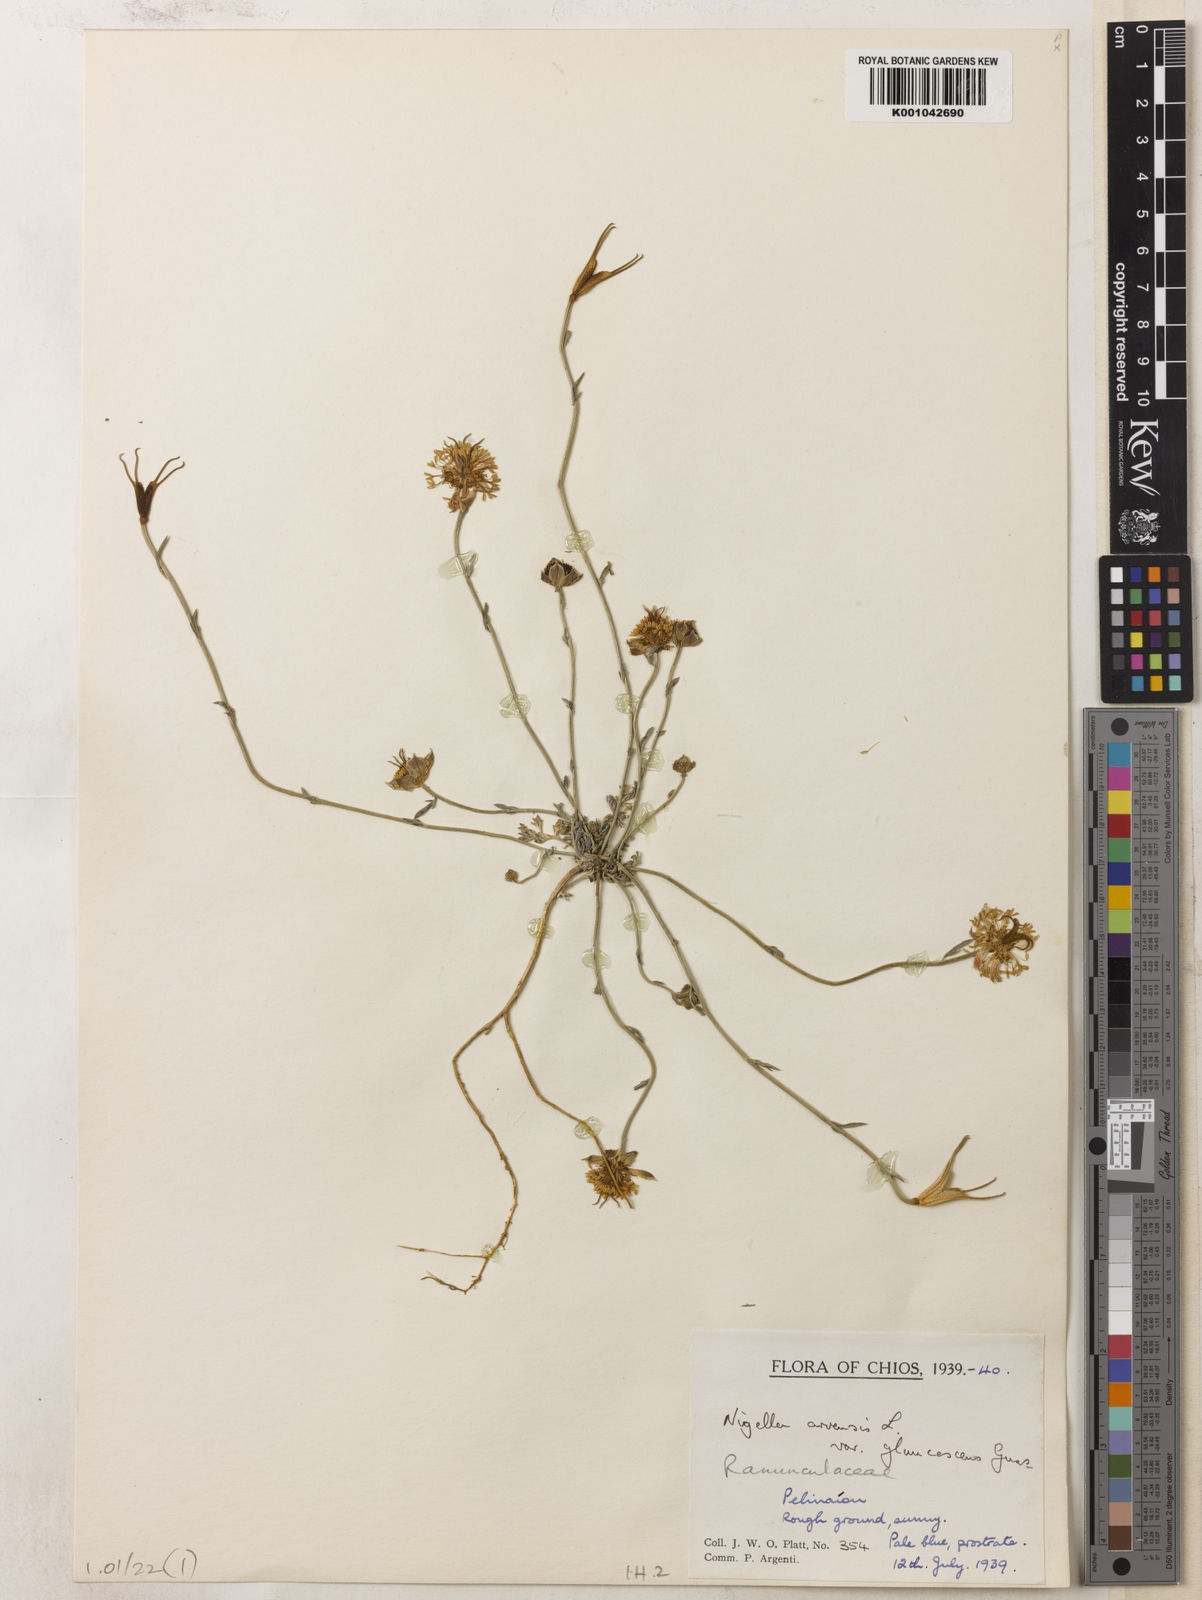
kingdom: Plantae
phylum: Tracheophyta
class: Magnoliopsida
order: Ranunculales
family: Ranunculaceae
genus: Nigella
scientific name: Nigella arvensis
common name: Wild fennel-flower
